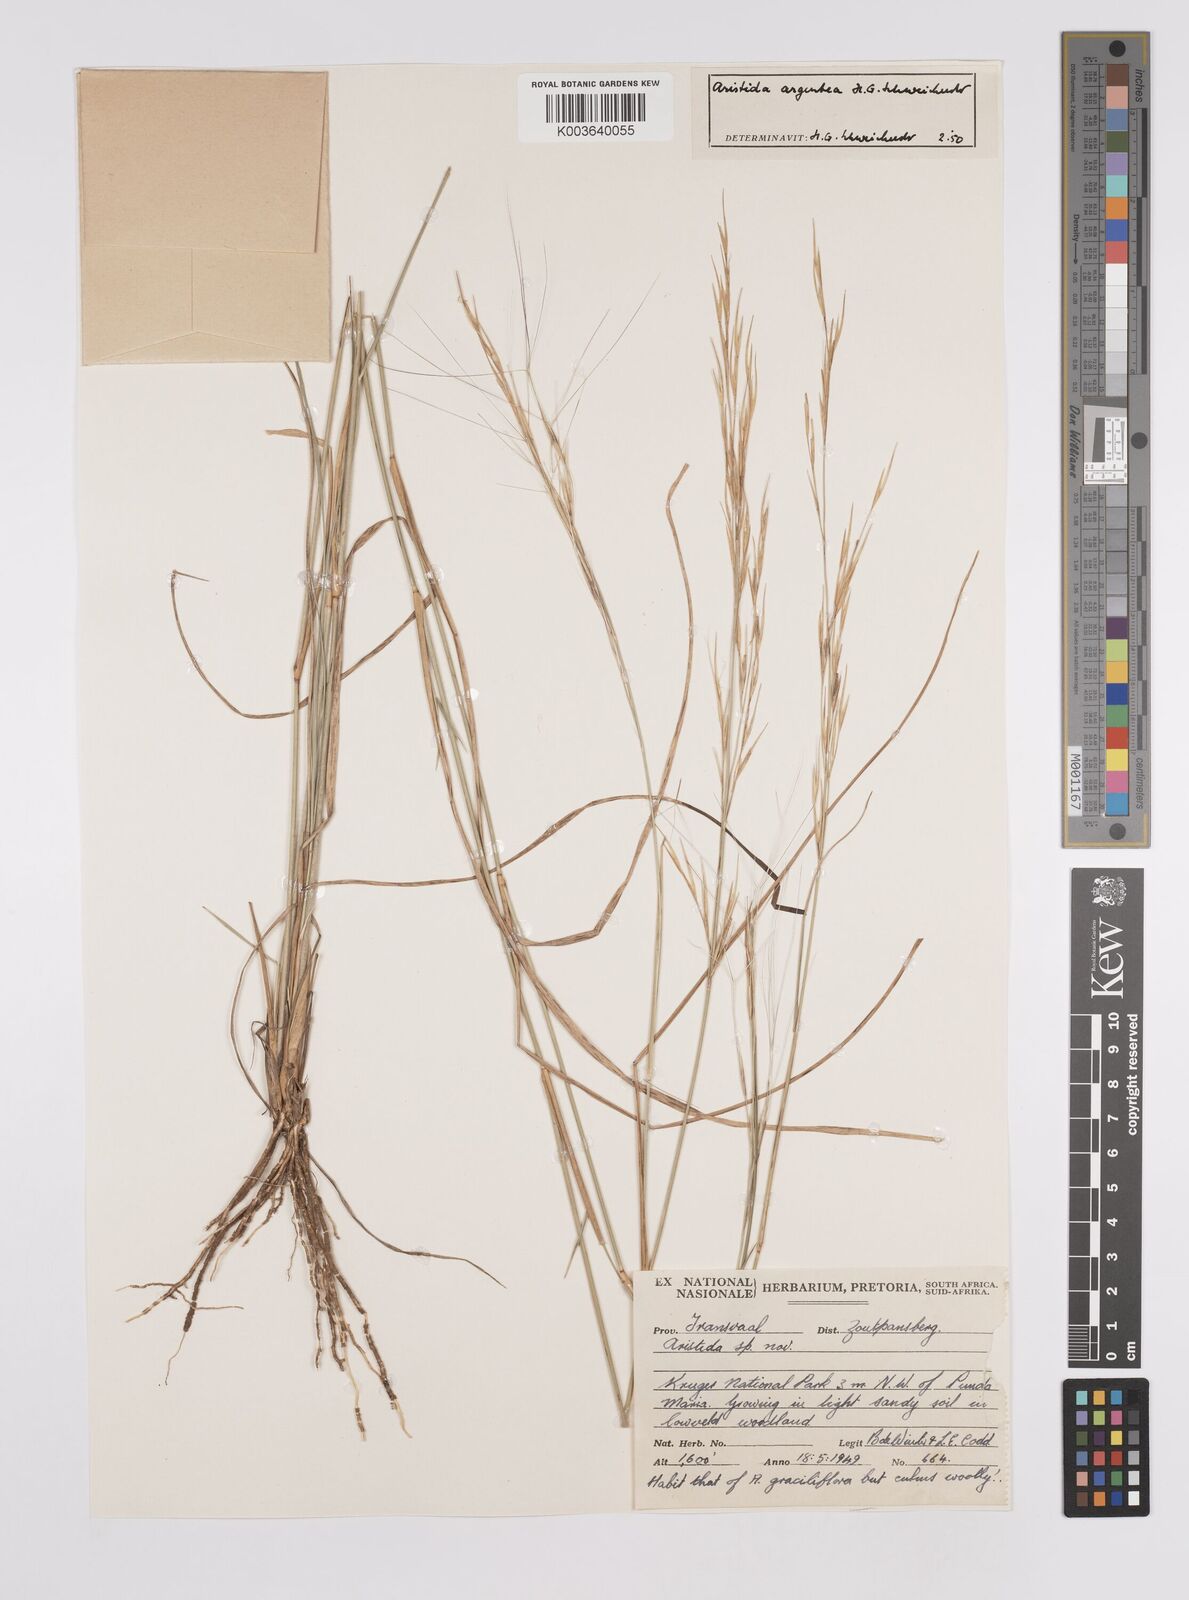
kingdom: Plantae
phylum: Tracheophyta
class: Liliopsida
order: Poales
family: Poaceae
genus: Aristida
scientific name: Aristida mollissima
